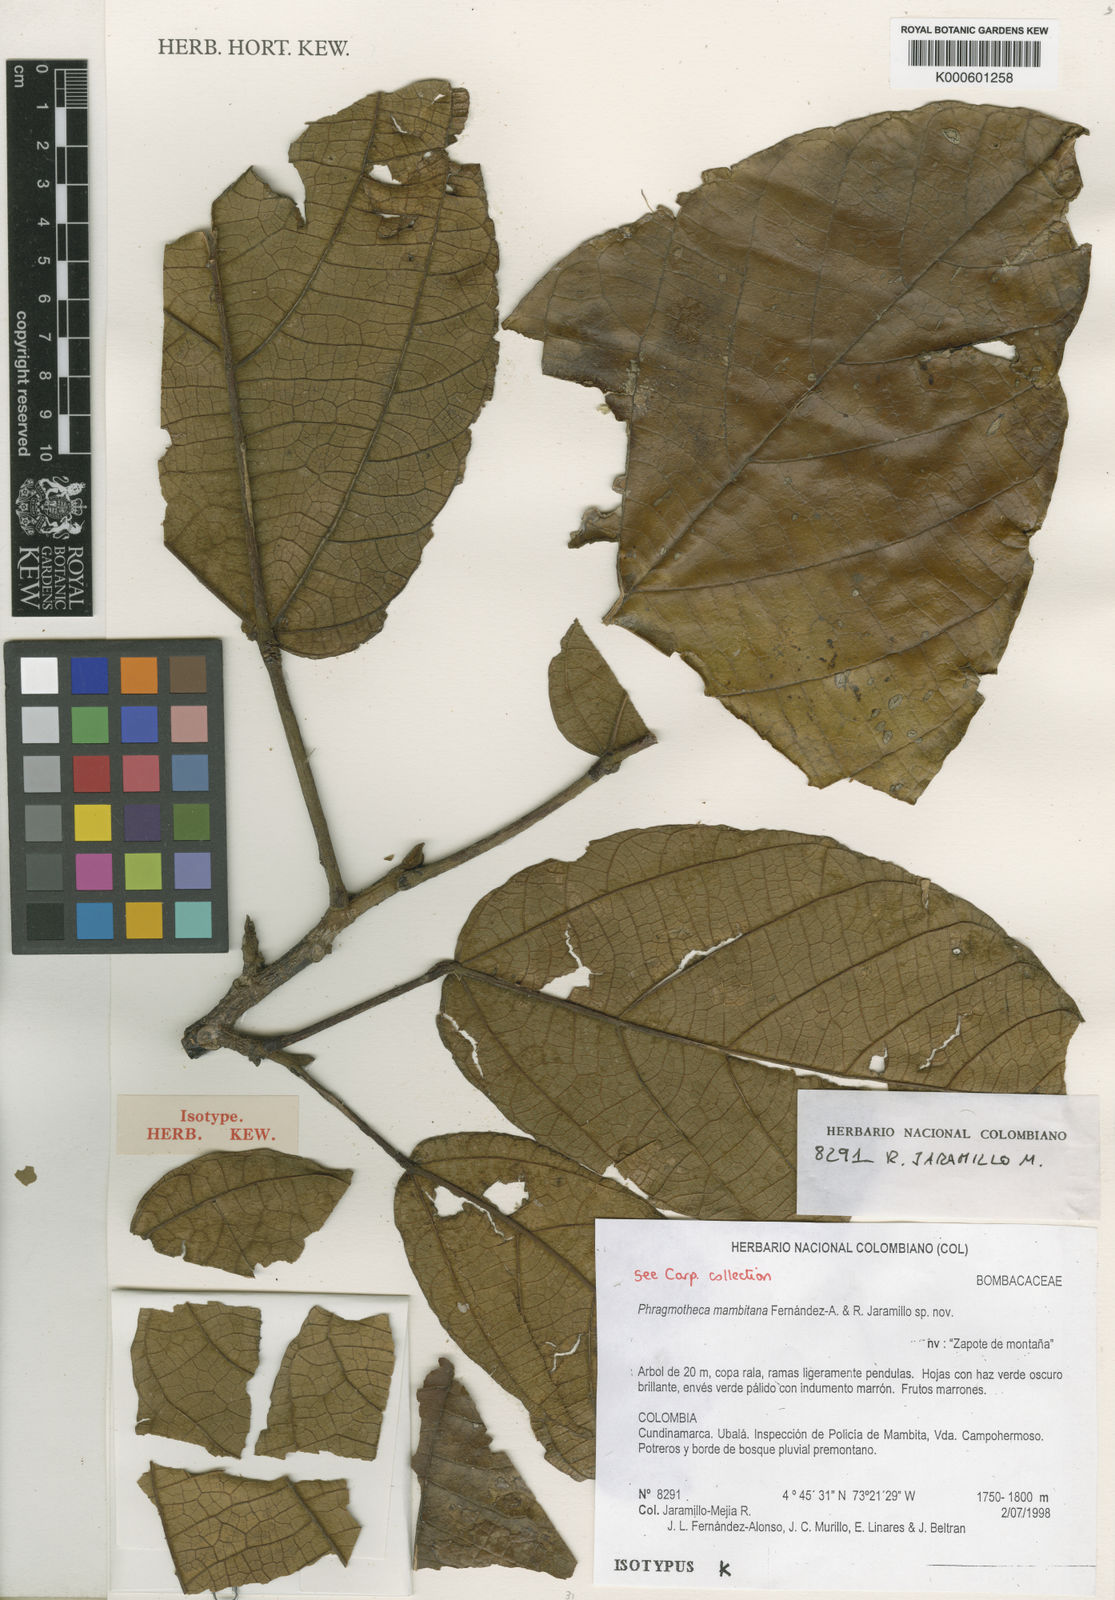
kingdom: Plantae
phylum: Tracheophyta
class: Magnoliopsida
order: Malvales
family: Malvaceae
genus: Phragmotheca
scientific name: Phragmotheca mambitana
